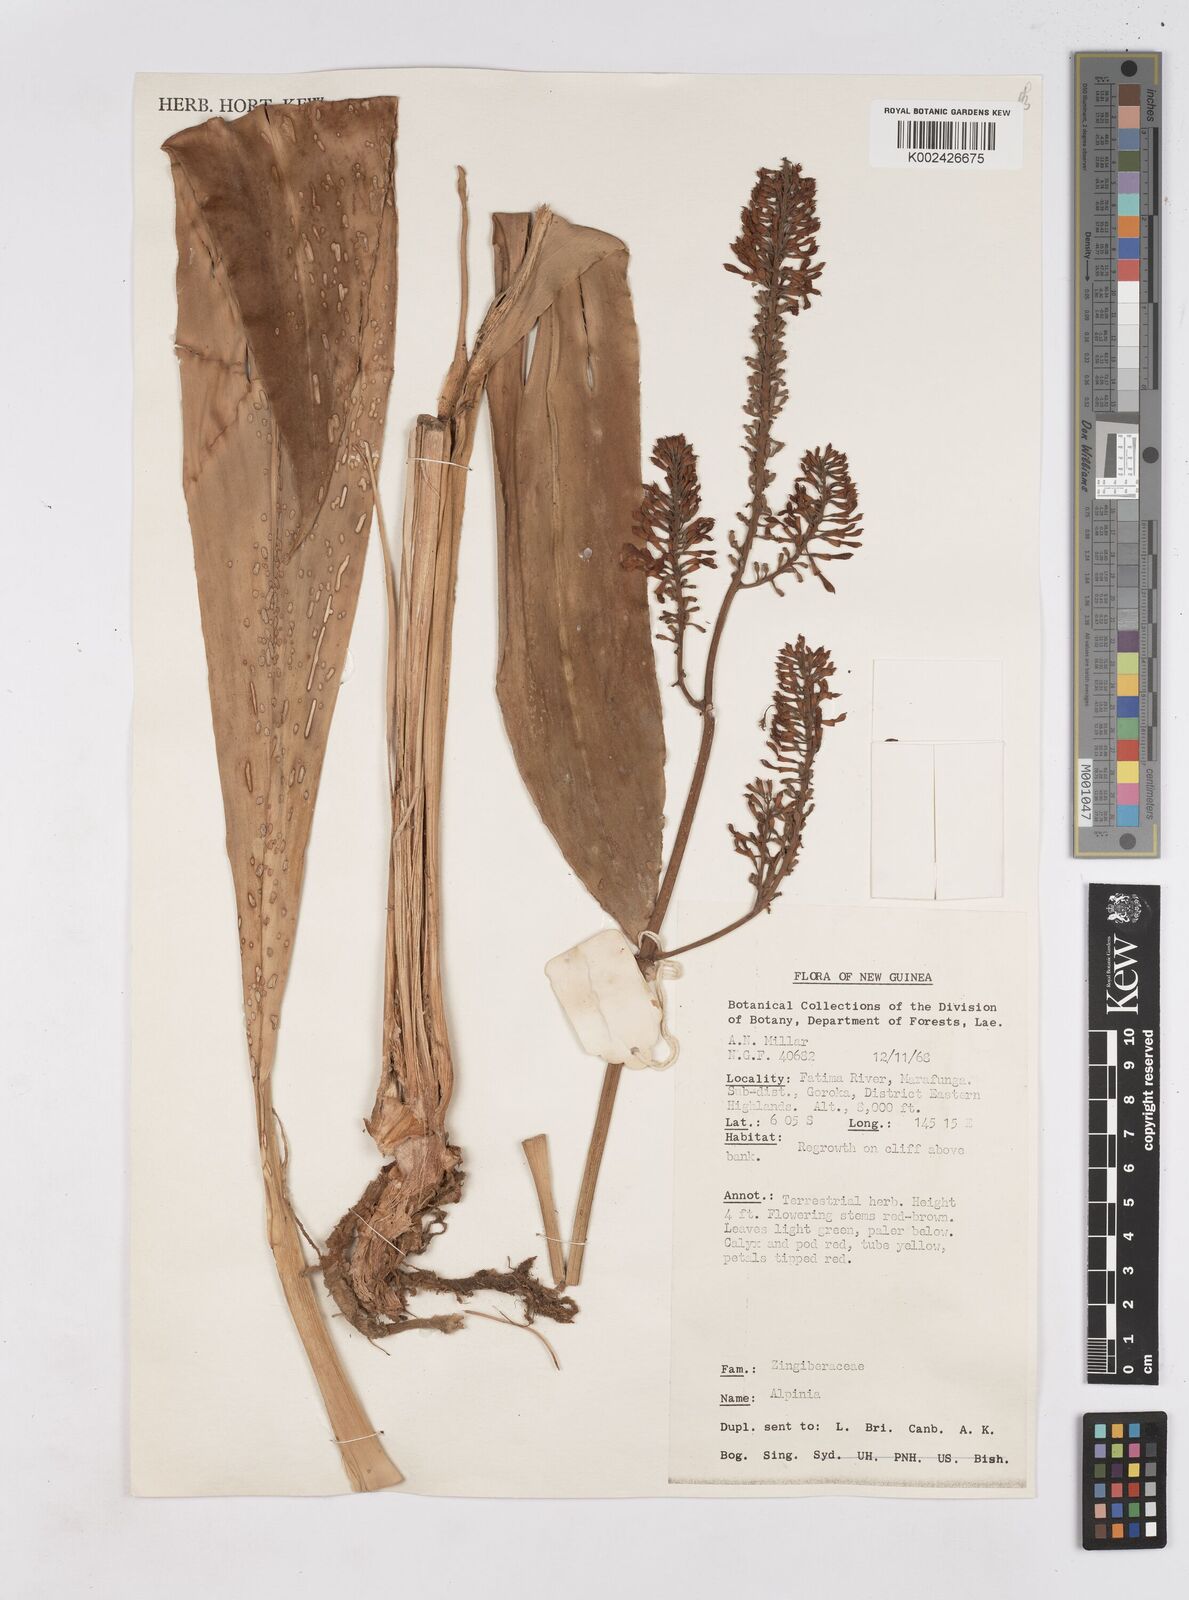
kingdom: Plantae
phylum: Tracheophyta
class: Liliopsida
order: Zingiberales
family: Zingiberaceae
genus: Riedelia
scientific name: Riedelia
